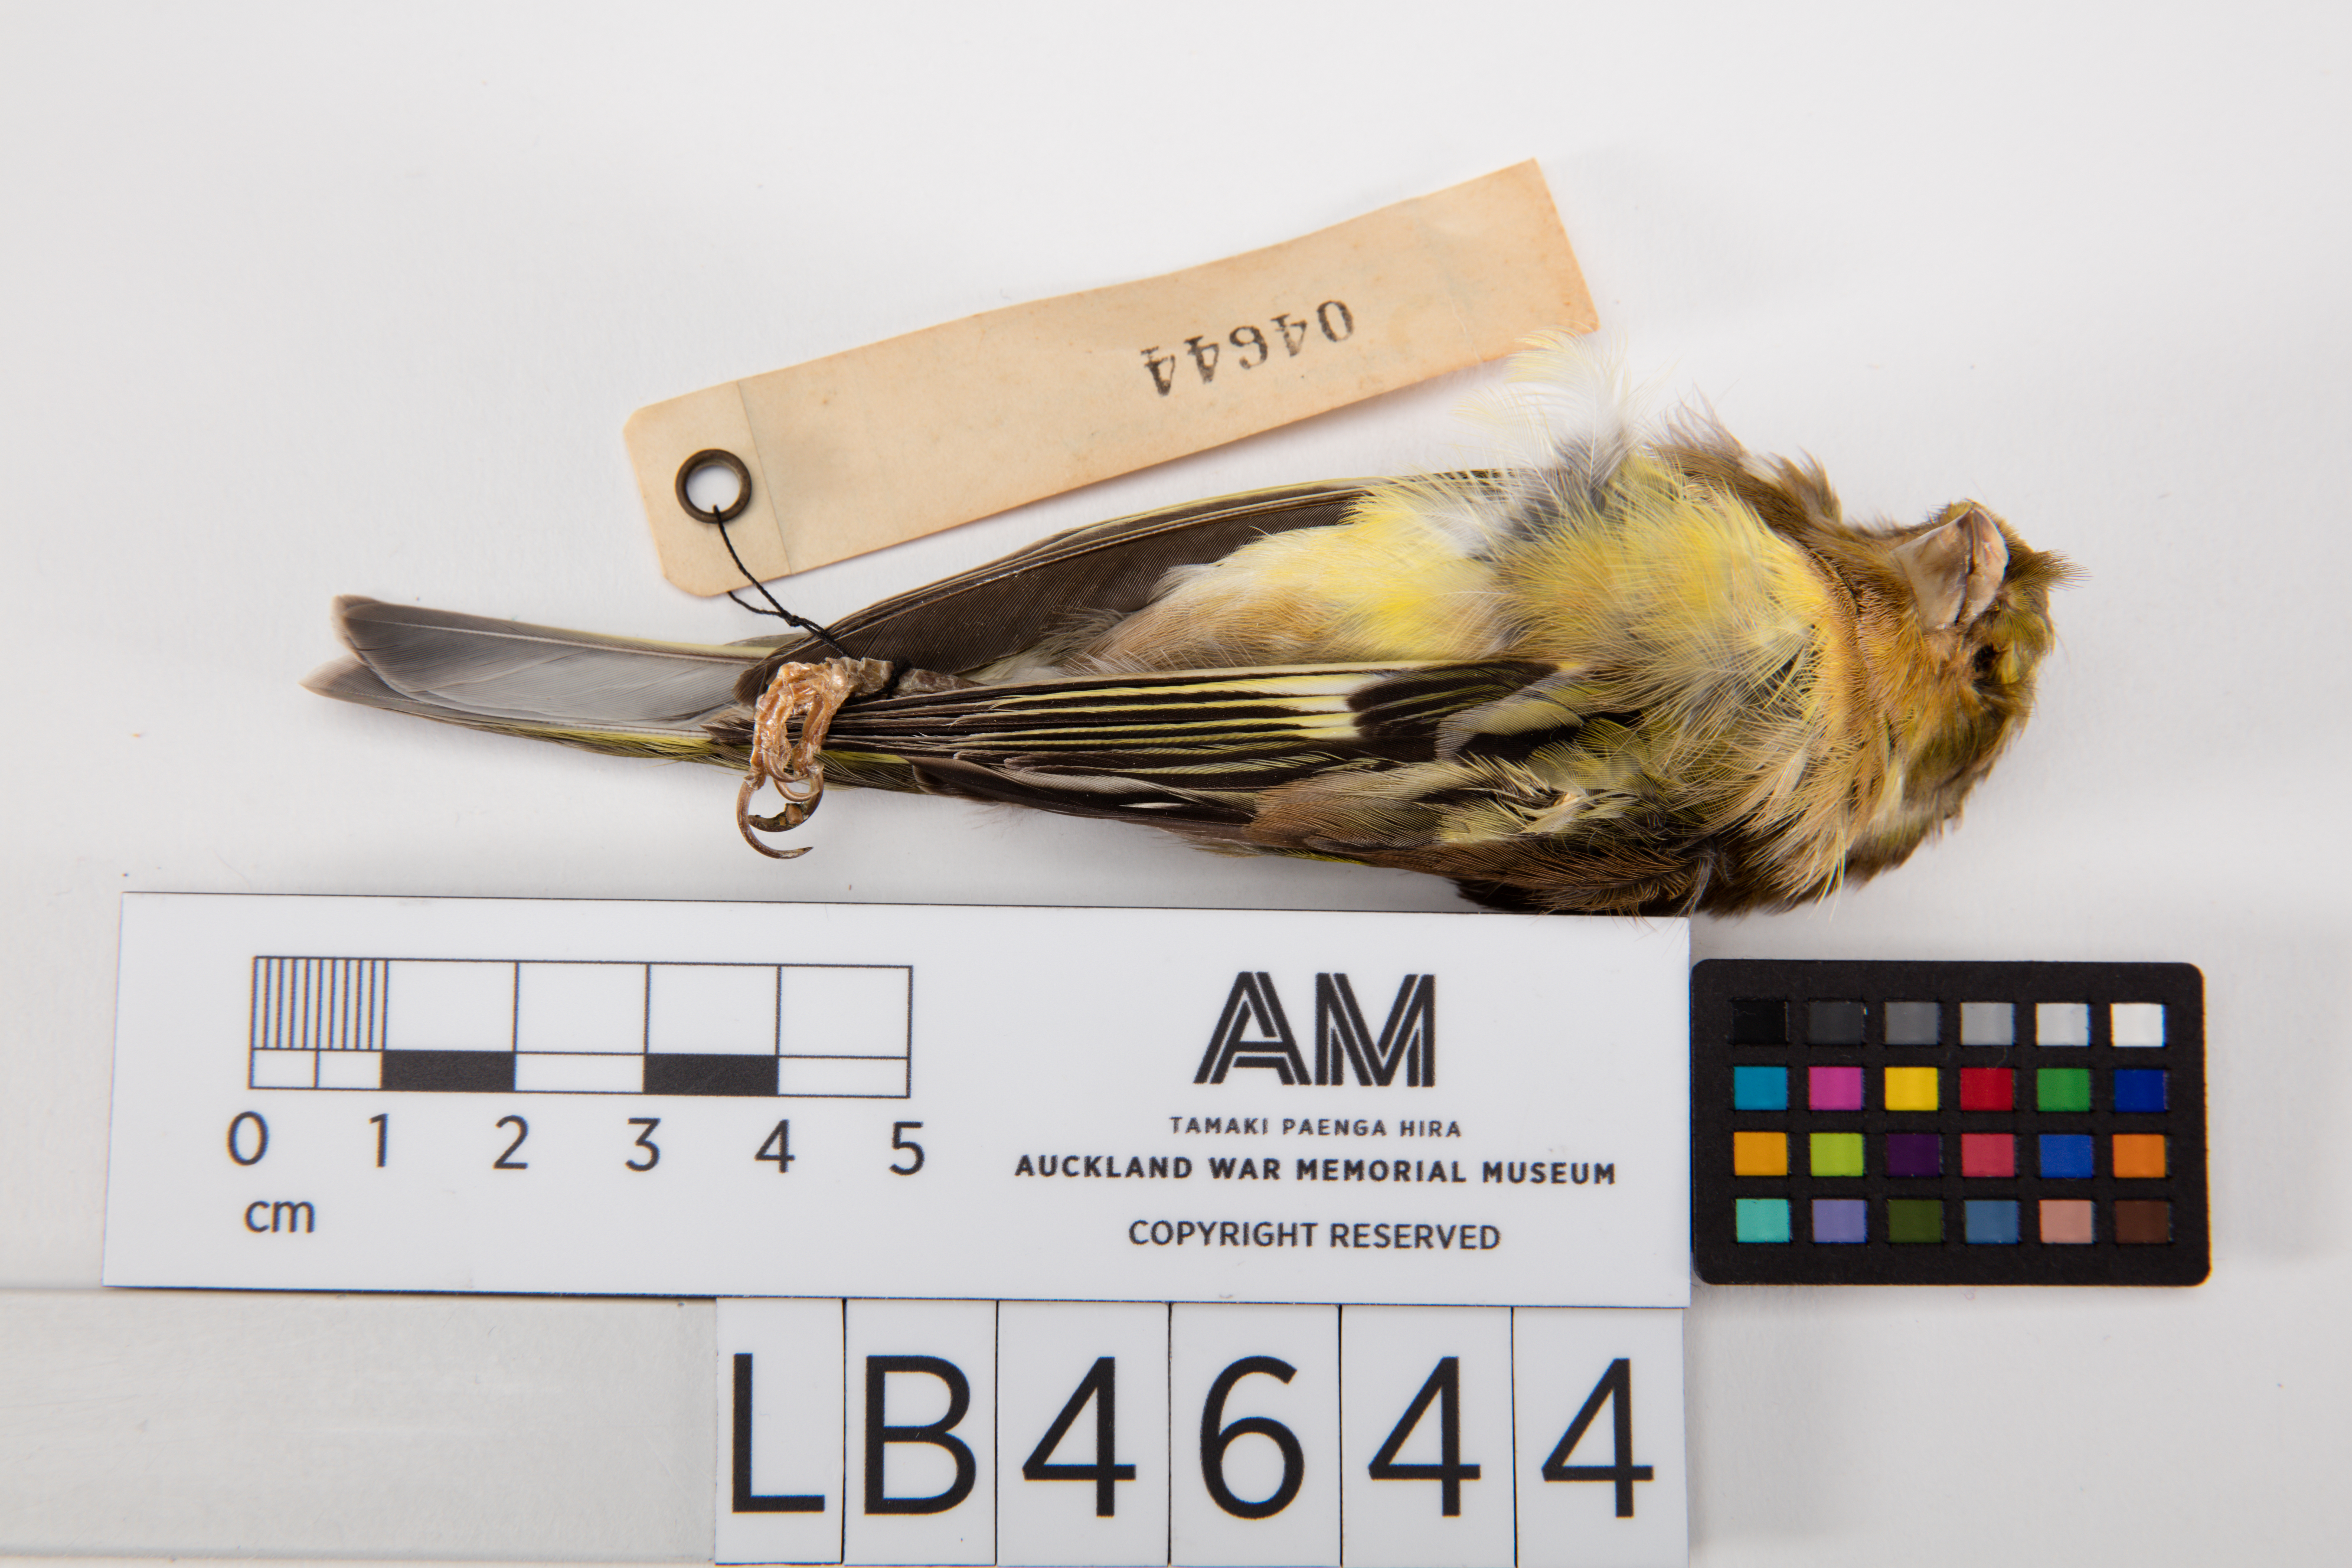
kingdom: Plantae
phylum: Tracheophyta
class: Liliopsida
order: Poales
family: Poaceae
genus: Chloris
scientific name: Chloris chloris
